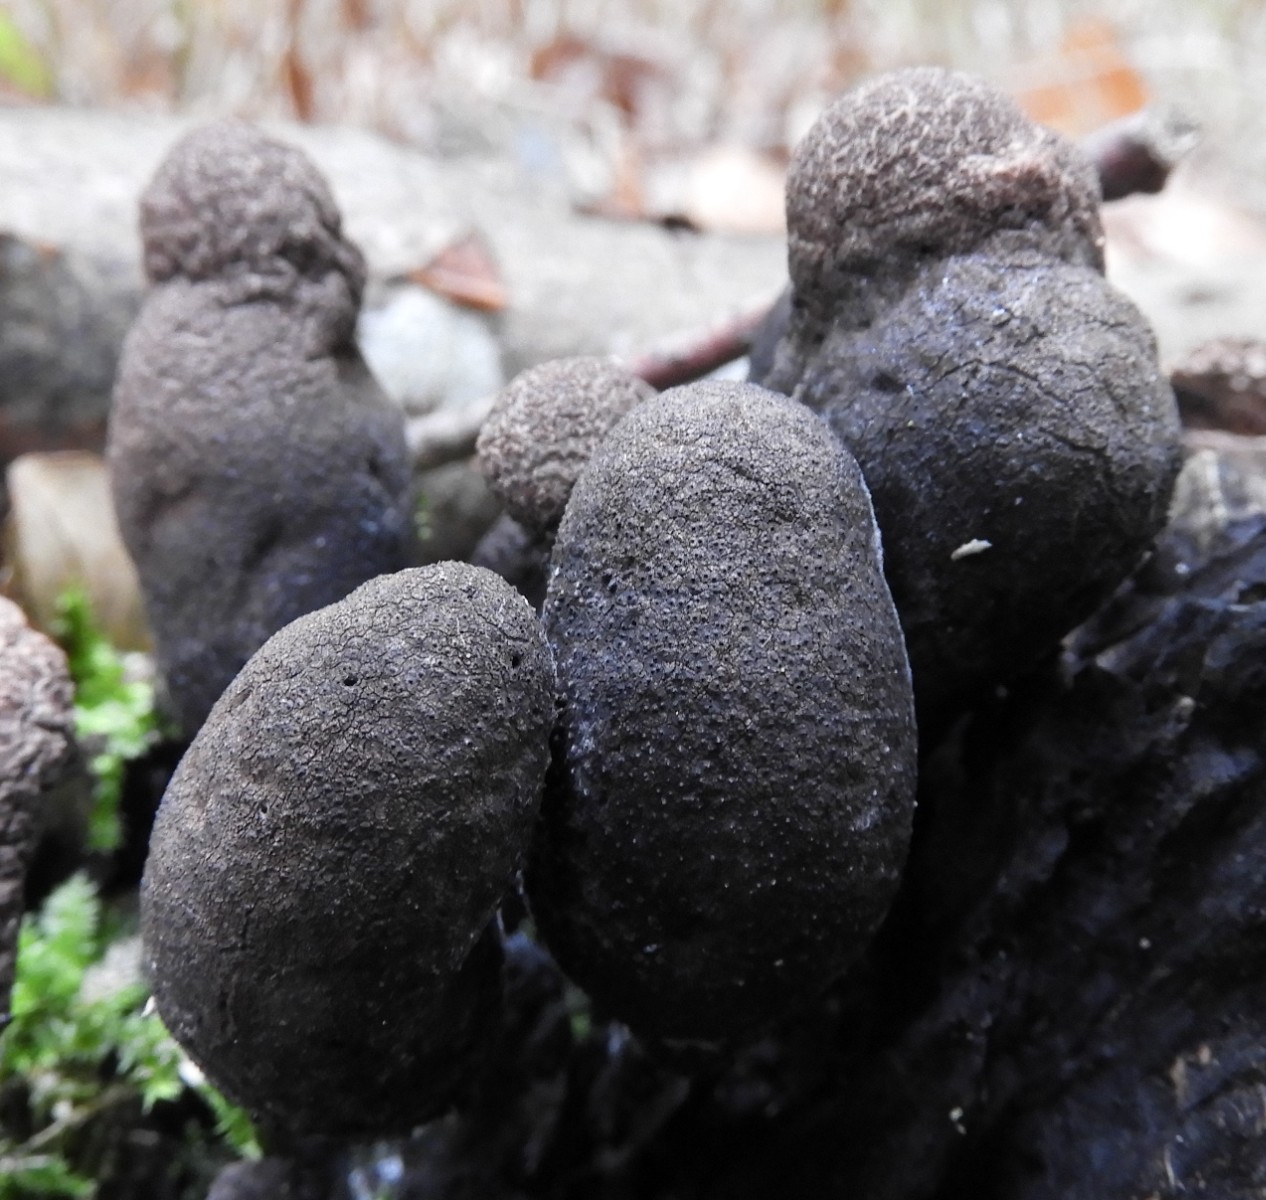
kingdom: Fungi
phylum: Ascomycota
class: Sordariomycetes
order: Xylariales
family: Xylariaceae
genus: Xylaria
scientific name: Xylaria polymorpha
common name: kølle-stødsvamp
